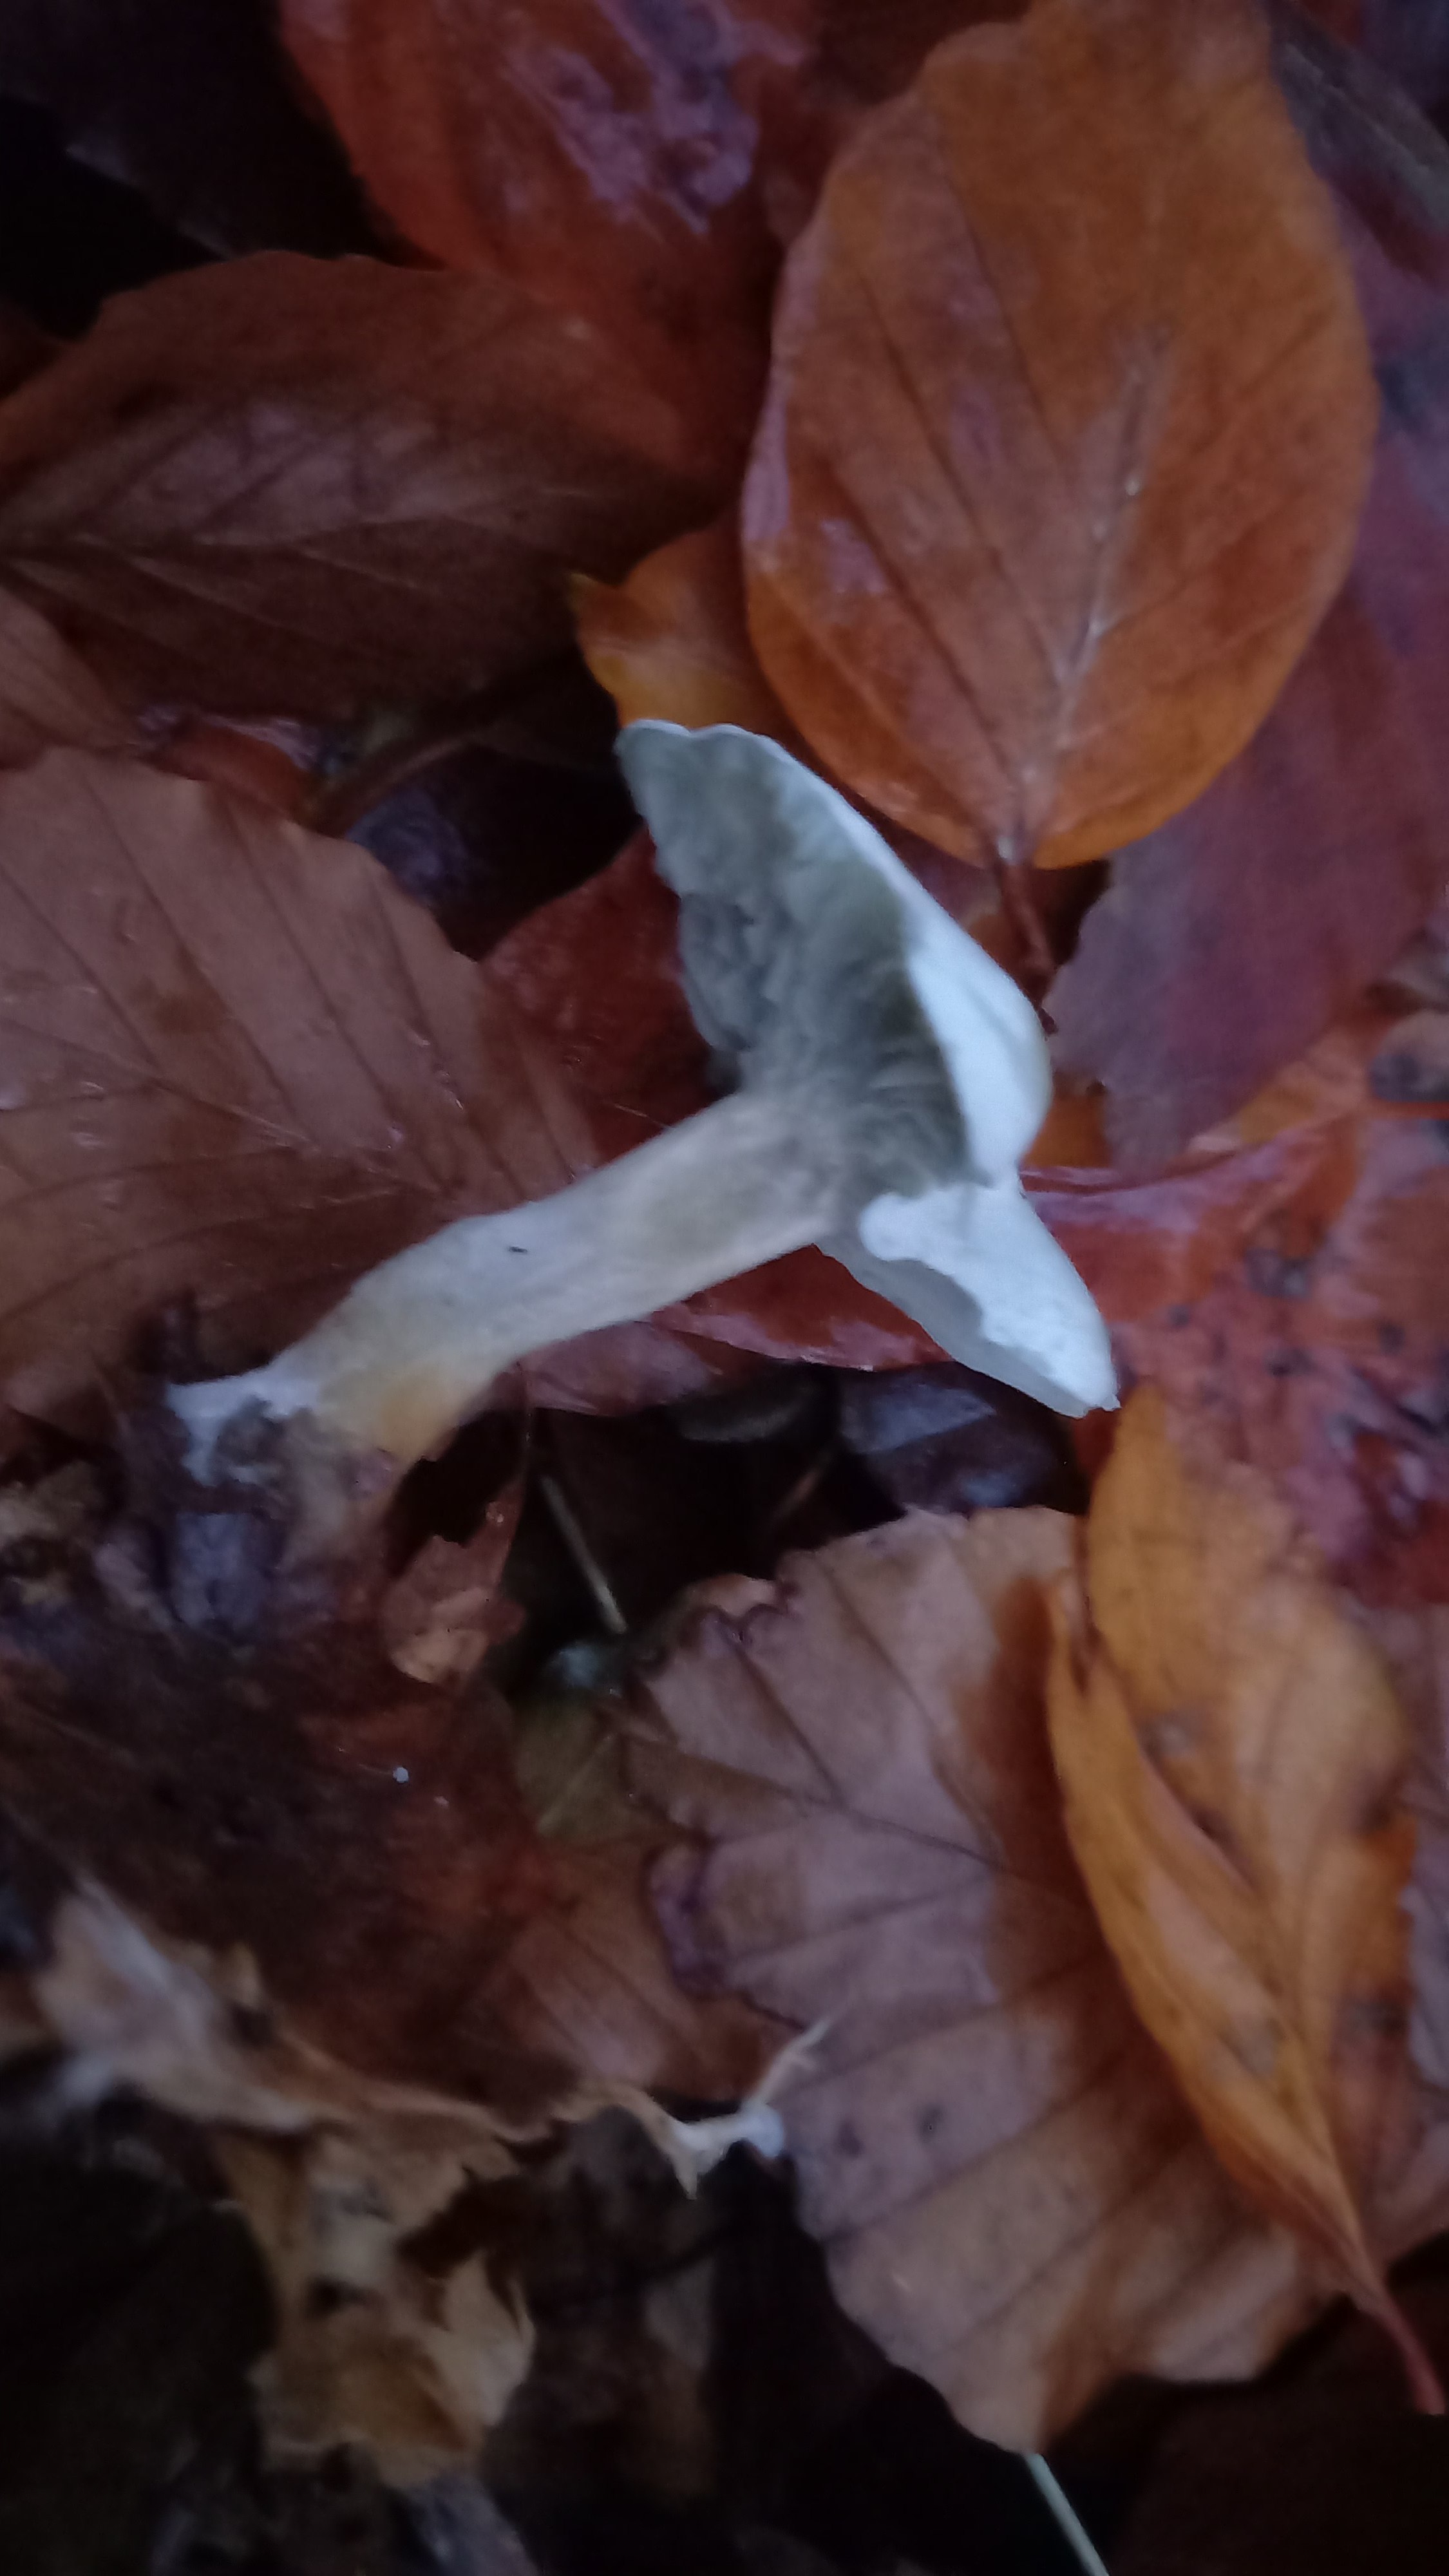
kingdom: Fungi
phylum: Basidiomycota
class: Agaricomycetes
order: Agaricales
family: Tricholomataceae
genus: Clitocybe
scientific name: Clitocybe odora
